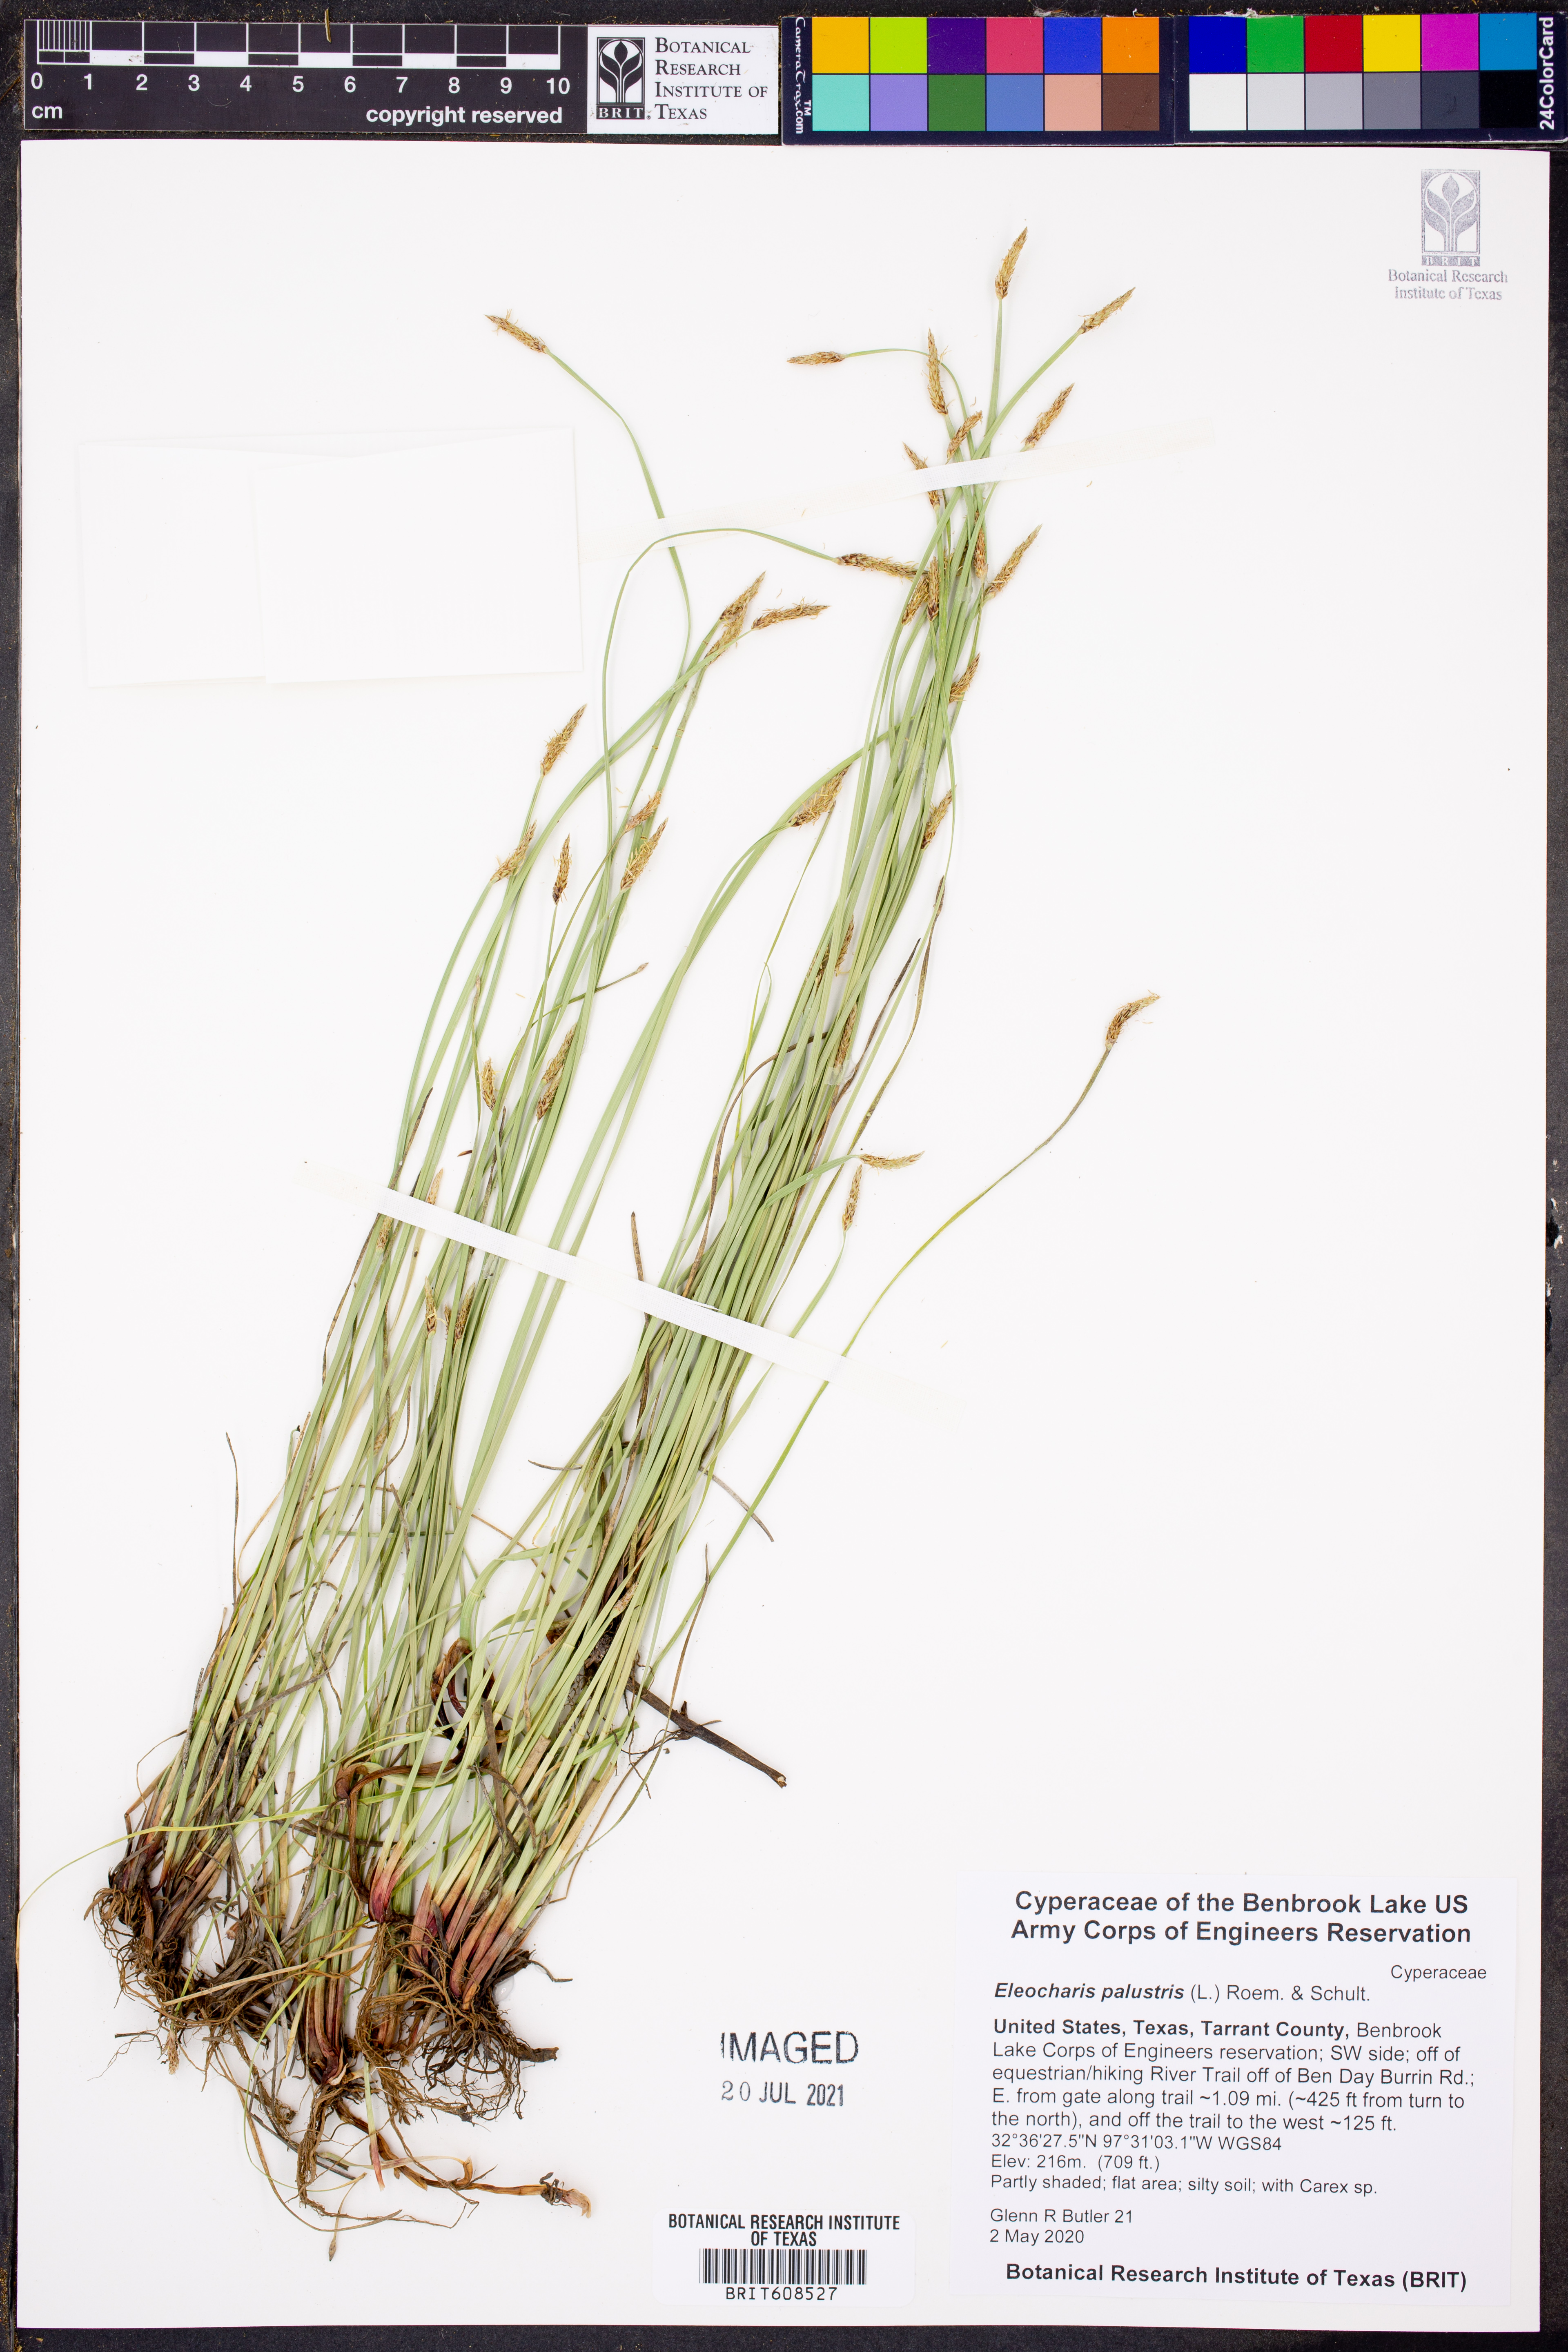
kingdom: Plantae
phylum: Tracheophyta
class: Liliopsida
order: Poales
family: Cyperaceae
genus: Eleocharis
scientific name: Eleocharis palustris
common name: Common spike-rush
